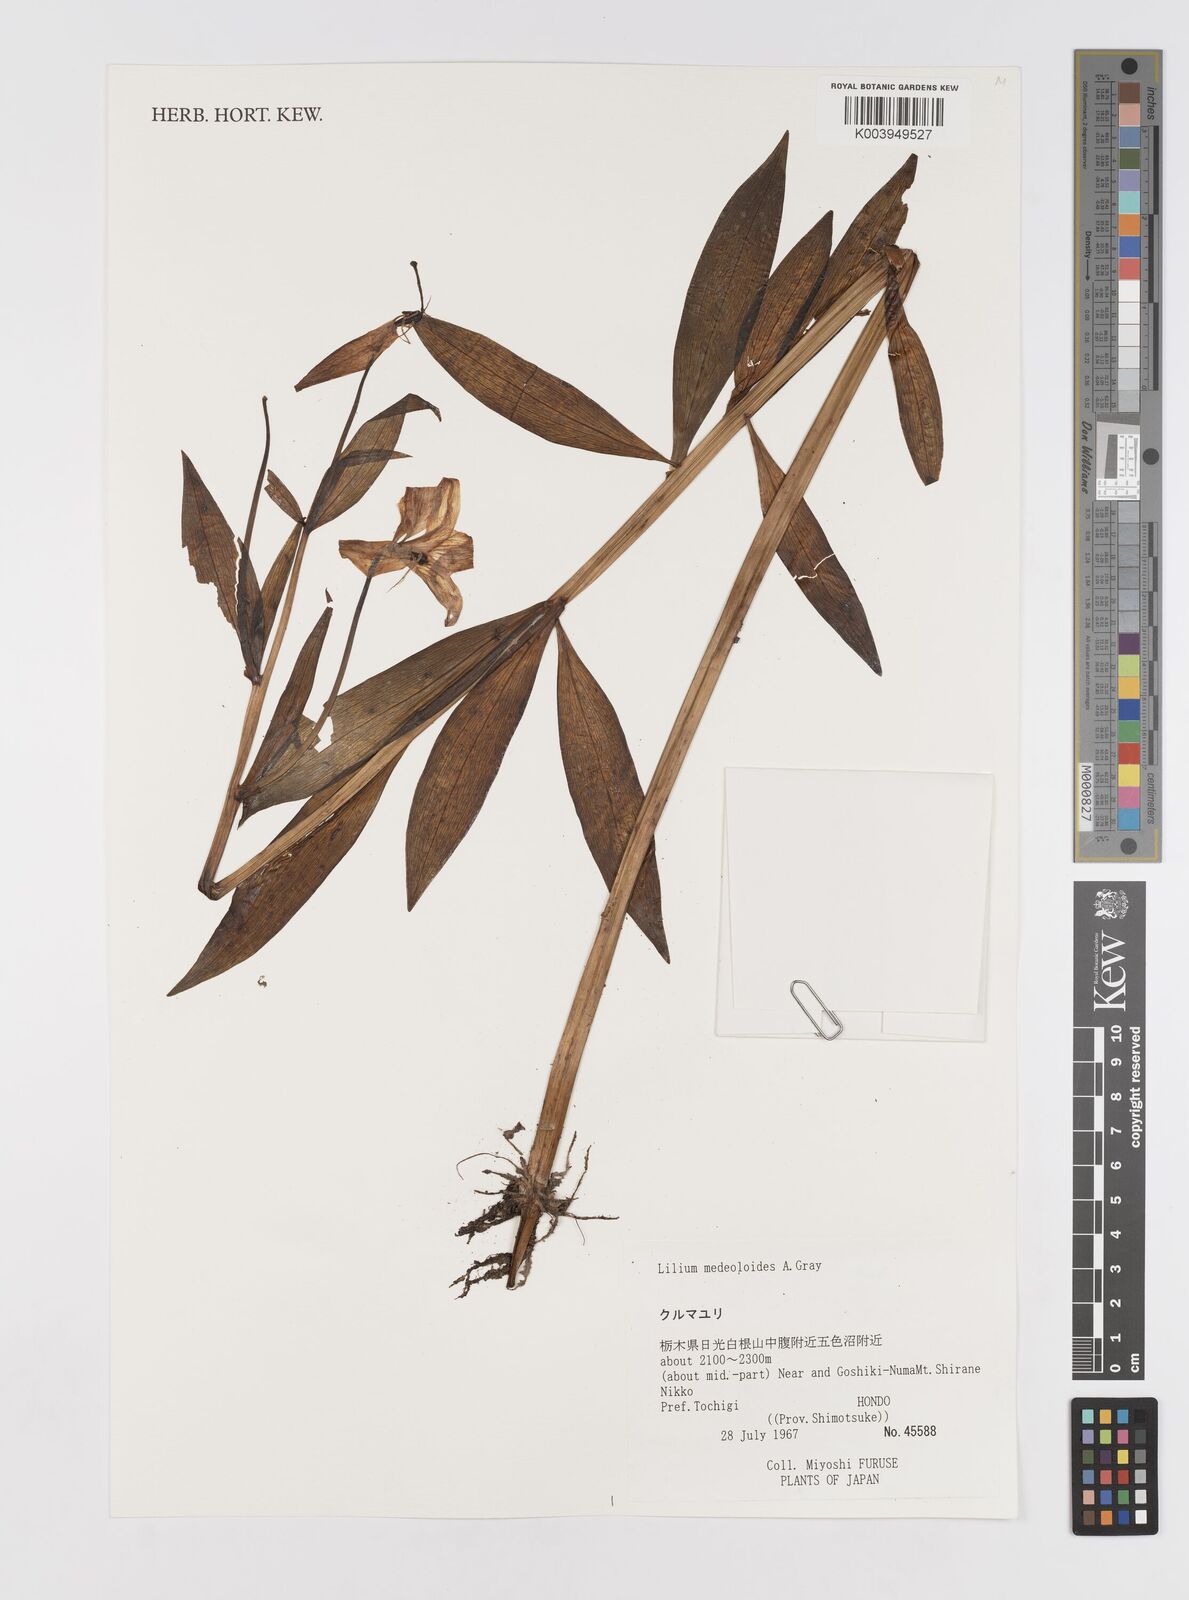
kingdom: Plantae
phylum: Tracheophyta
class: Liliopsida
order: Liliales
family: Liliaceae
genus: Lilium
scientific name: Lilium medeoloides
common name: Wheel lily
